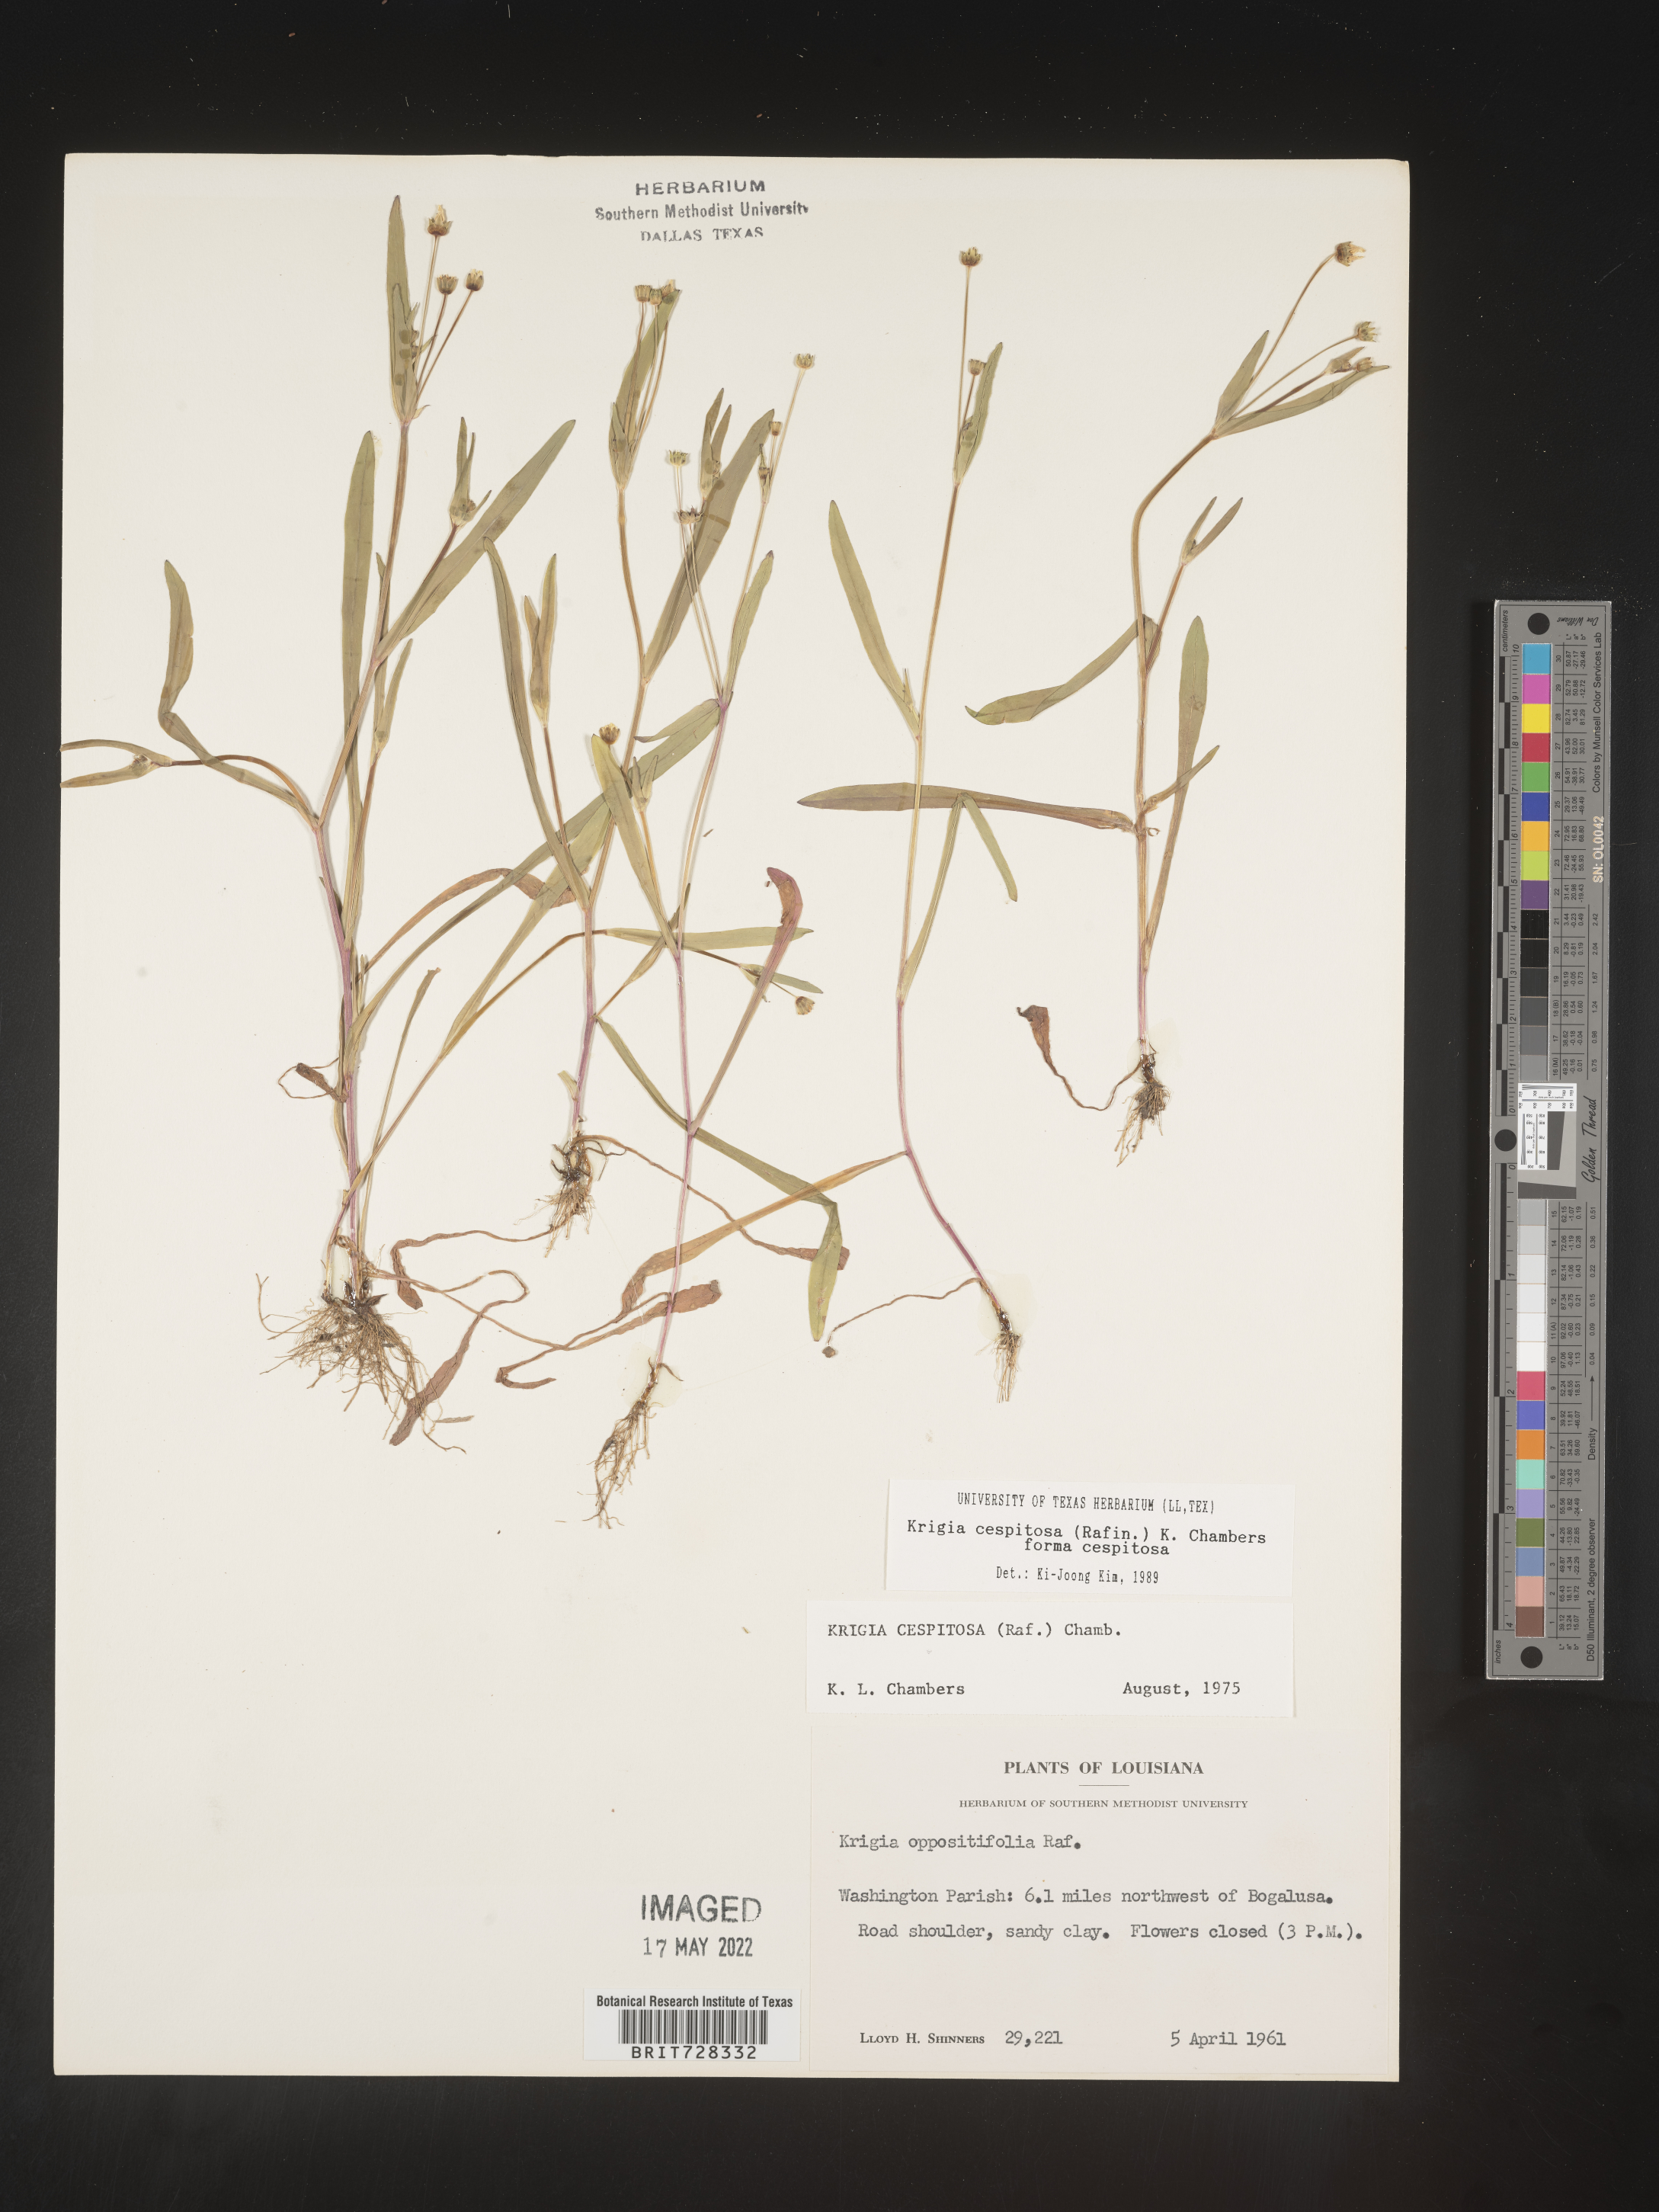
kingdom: Plantae
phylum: Tracheophyta
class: Magnoliopsida
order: Asterales
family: Asteraceae
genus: Krigia
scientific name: Krigia caespitosa
